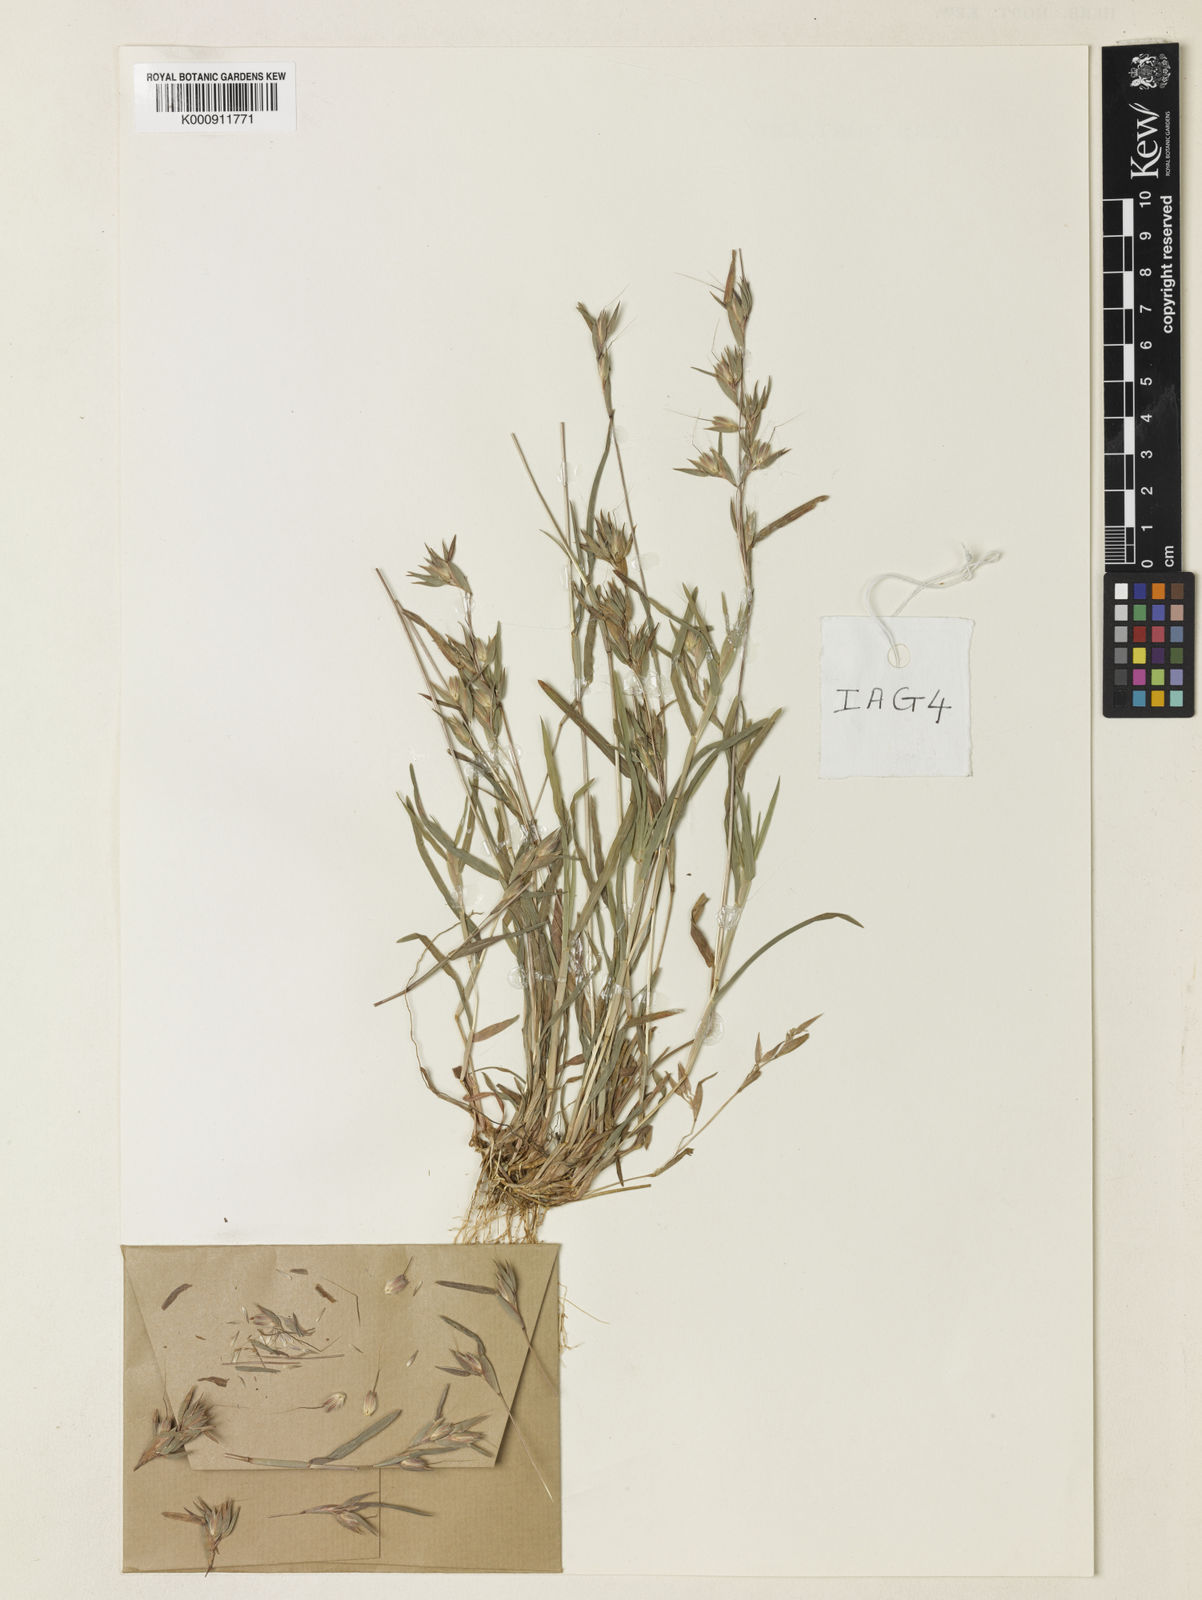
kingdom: Plantae
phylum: Tracheophyta
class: Liliopsida
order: Poales
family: Poaceae
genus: Iseilema
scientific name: Iseilema
